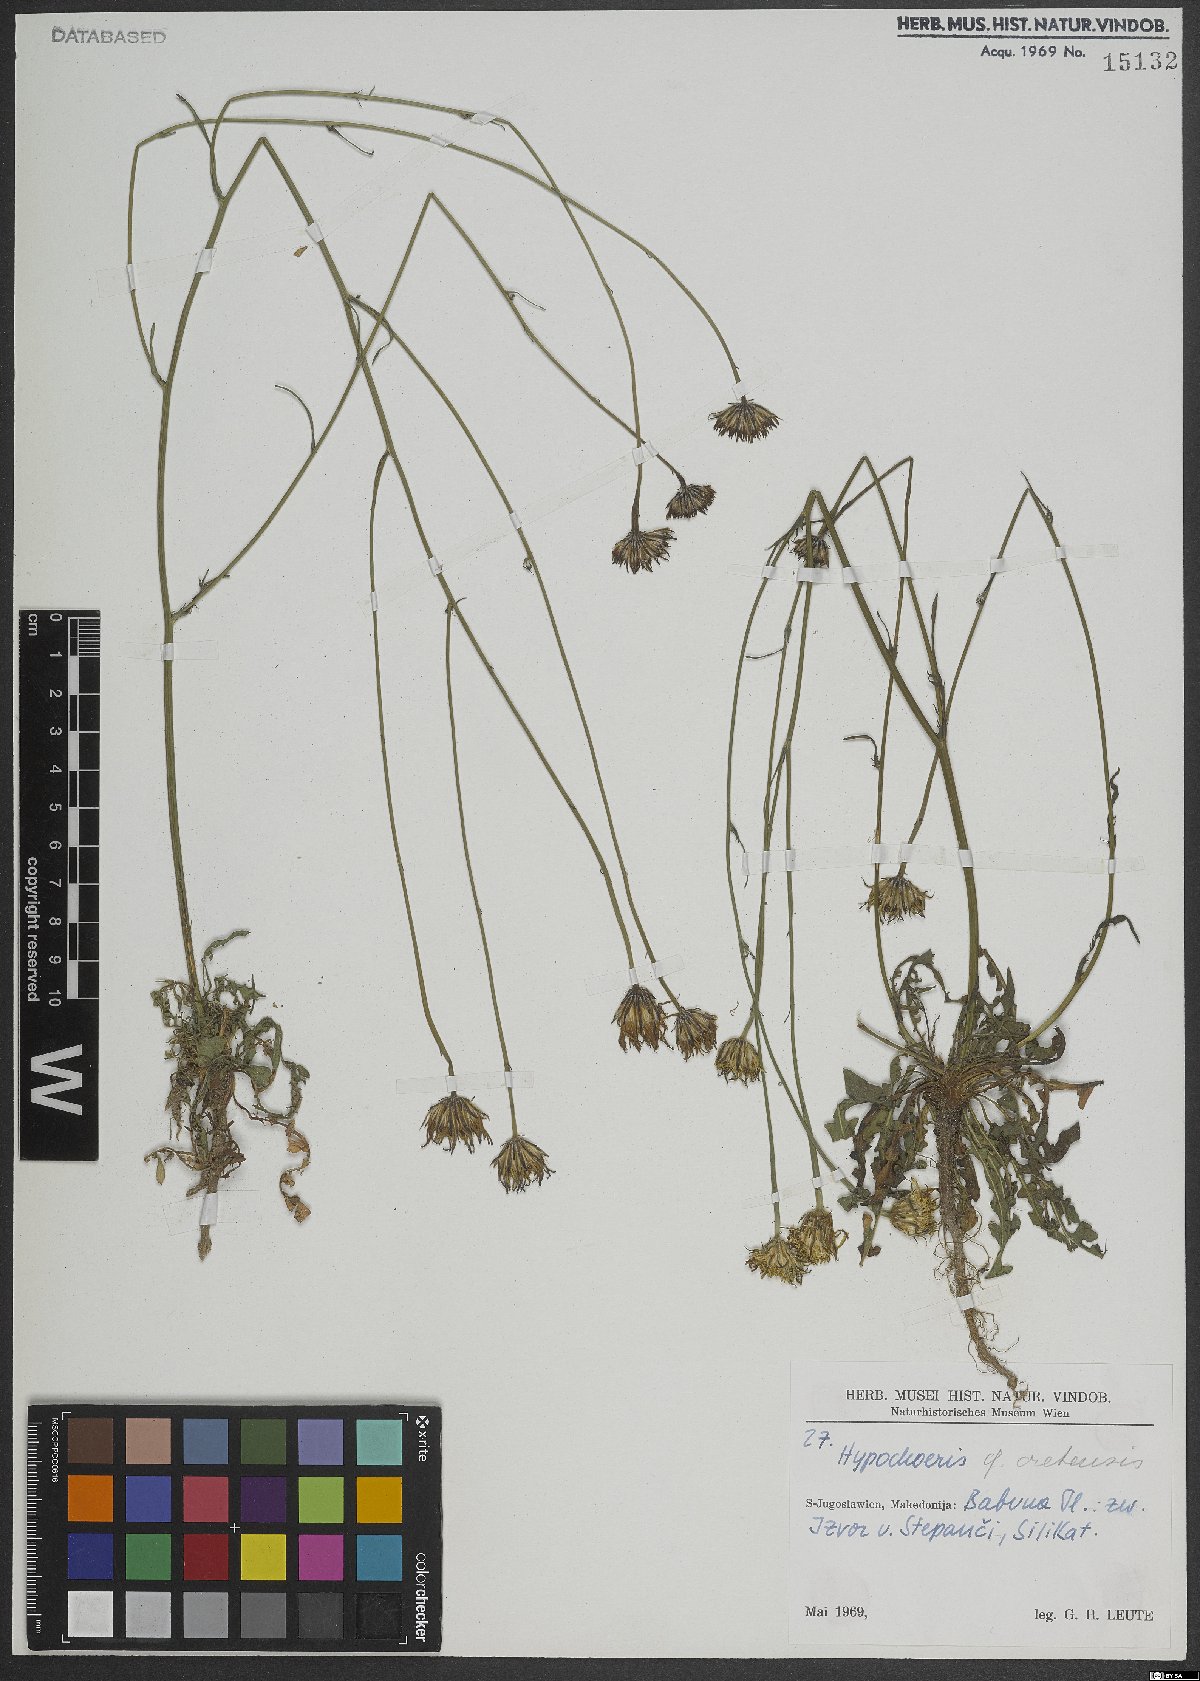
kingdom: Plantae
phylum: Tracheophyta
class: Magnoliopsida
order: Asterales
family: Asteraceae
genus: Hypochaeris
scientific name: Hypochaeris cretensis
